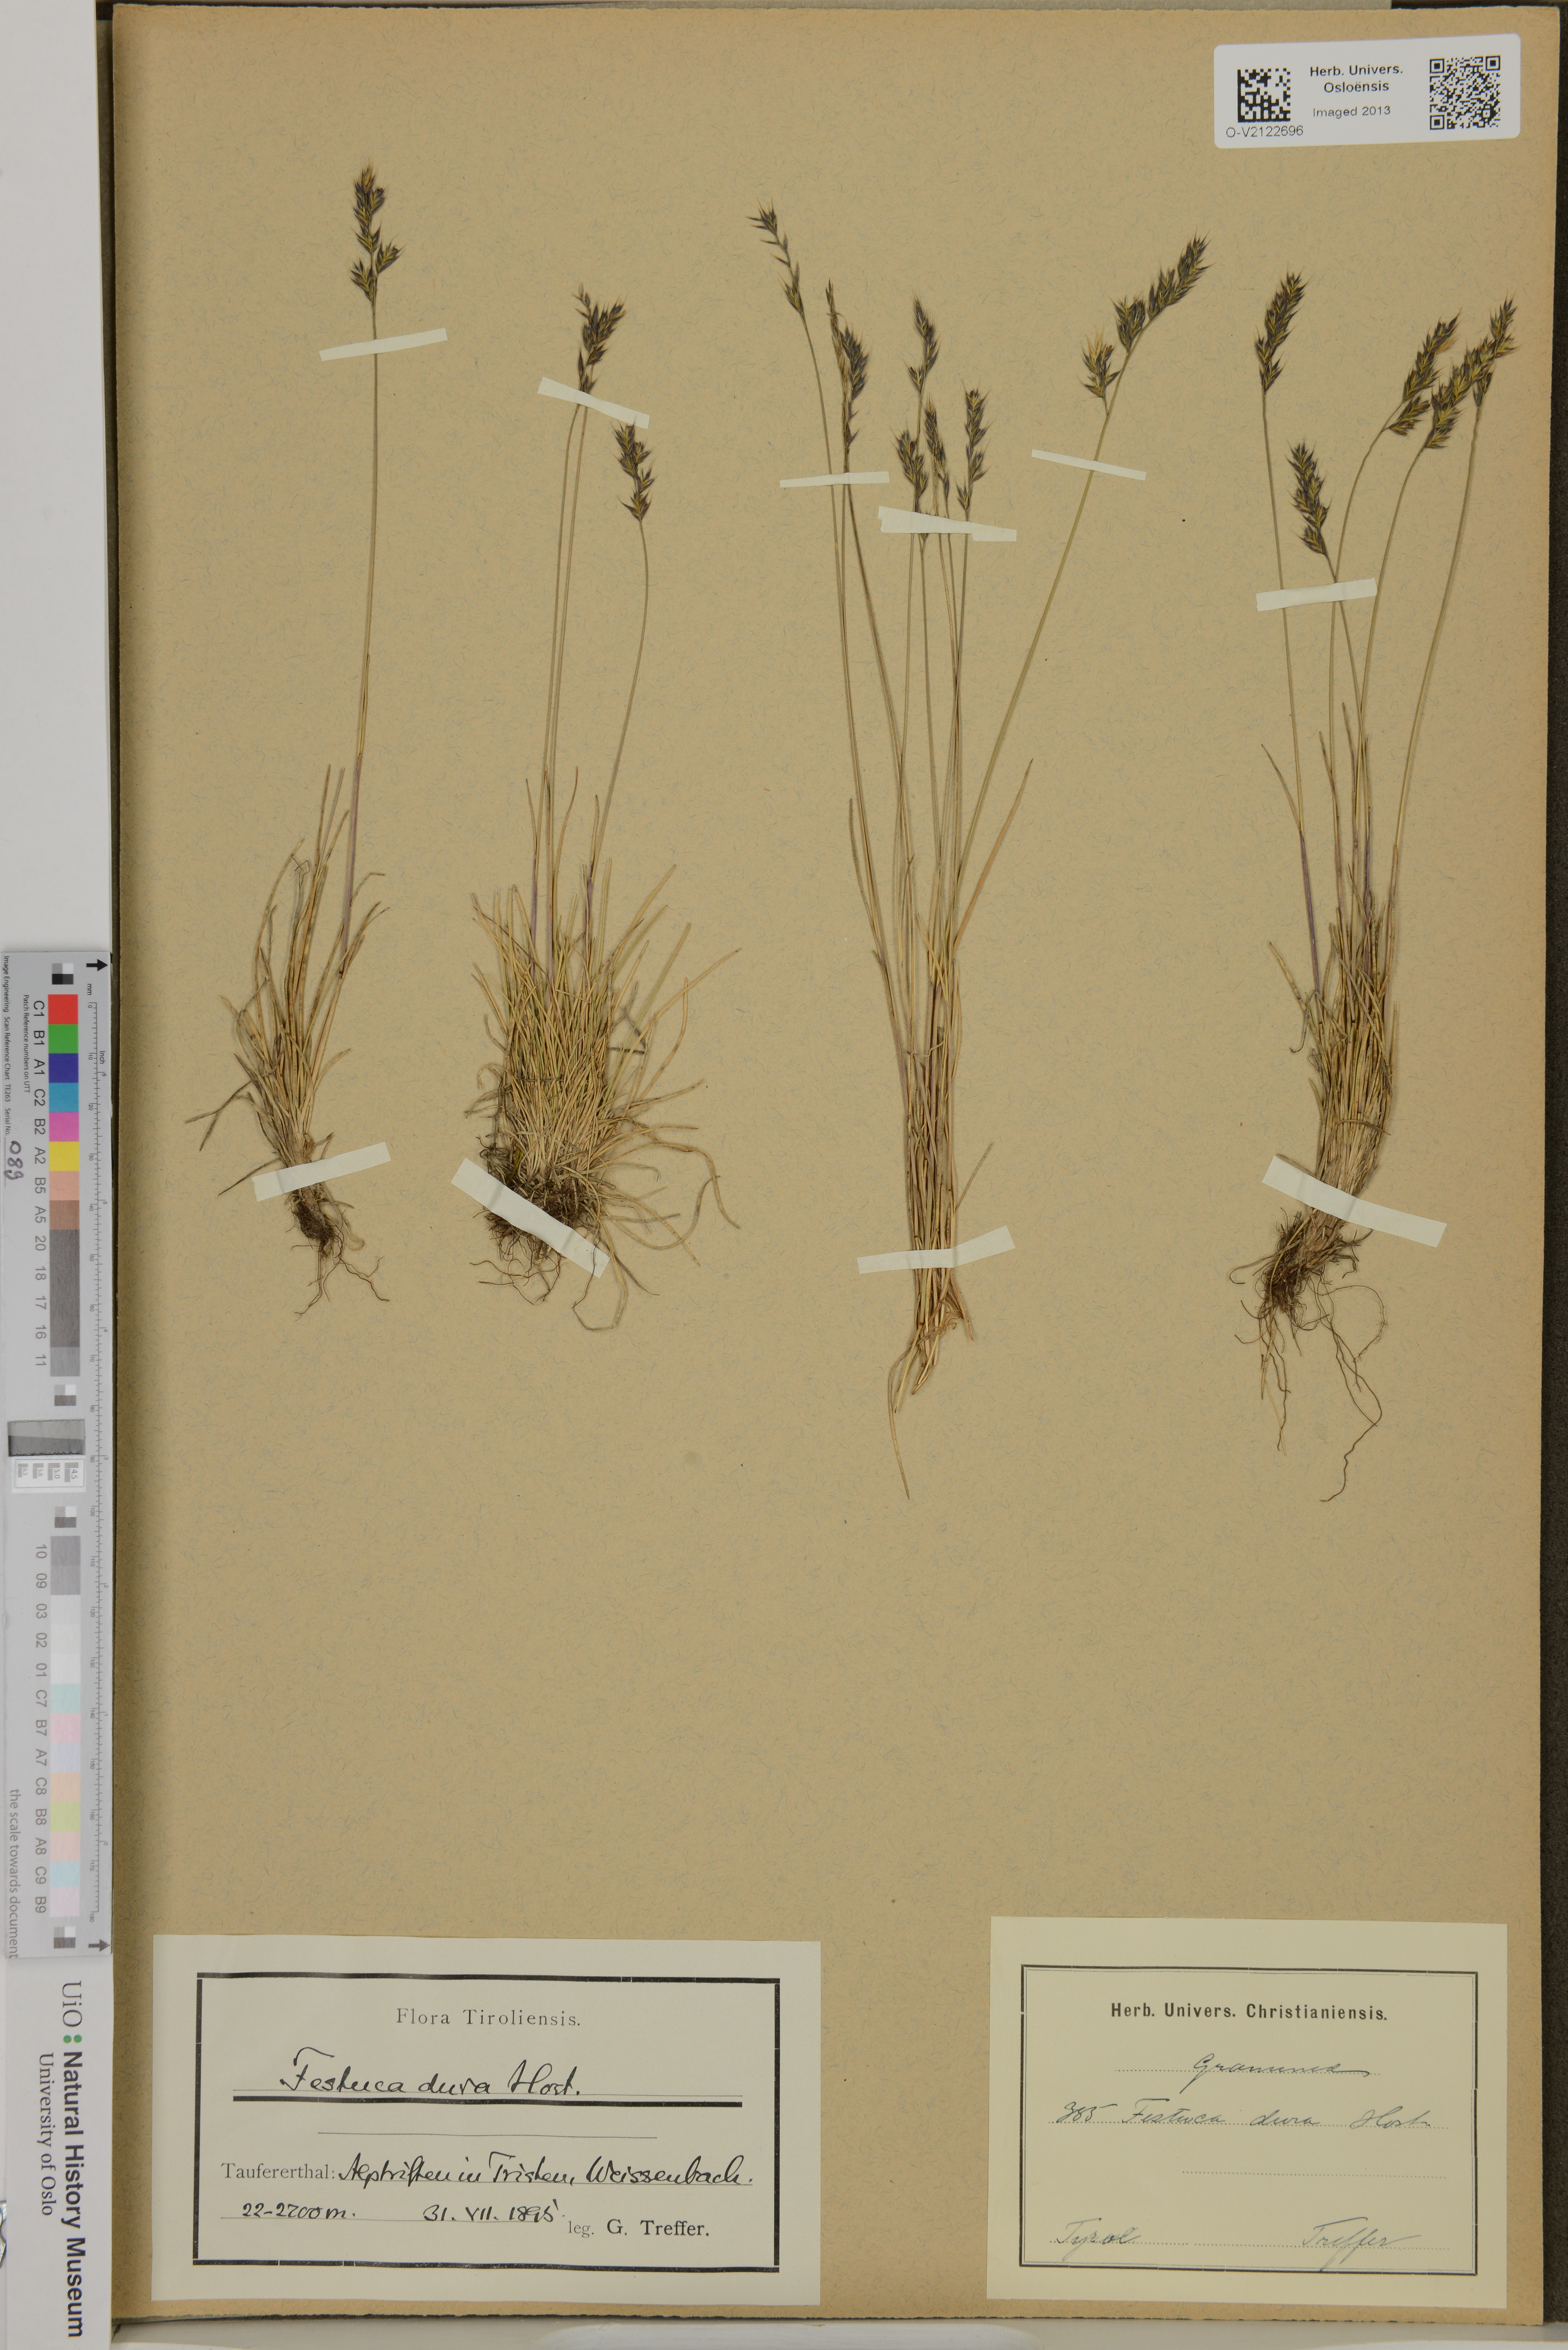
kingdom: Plantae
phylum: Tracheophyta
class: Liliopsida
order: Poales
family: Poaceae
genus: Festuca
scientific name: Festuca pseudodura
